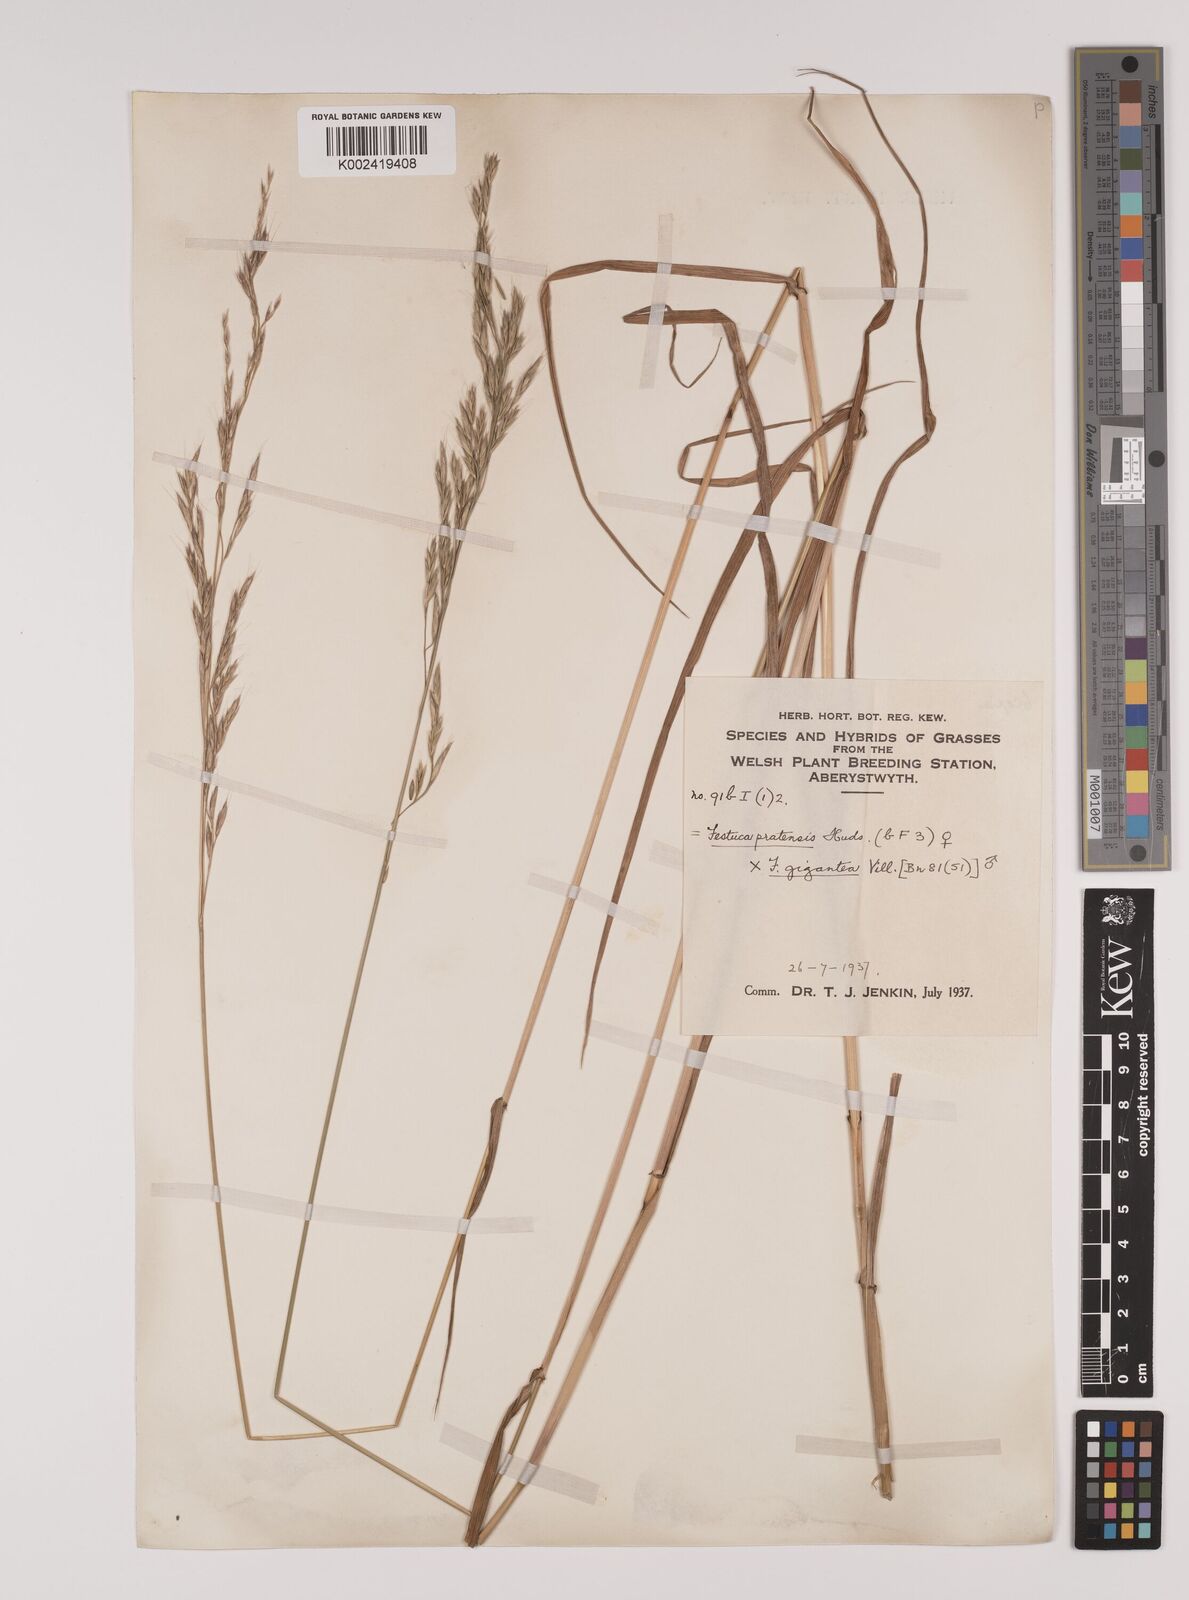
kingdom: Plantae
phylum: Tracheophyta
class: Liliopsida
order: Poales
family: Poaceae
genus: Lolium
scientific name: Lolium giganteum
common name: Giant fescue
